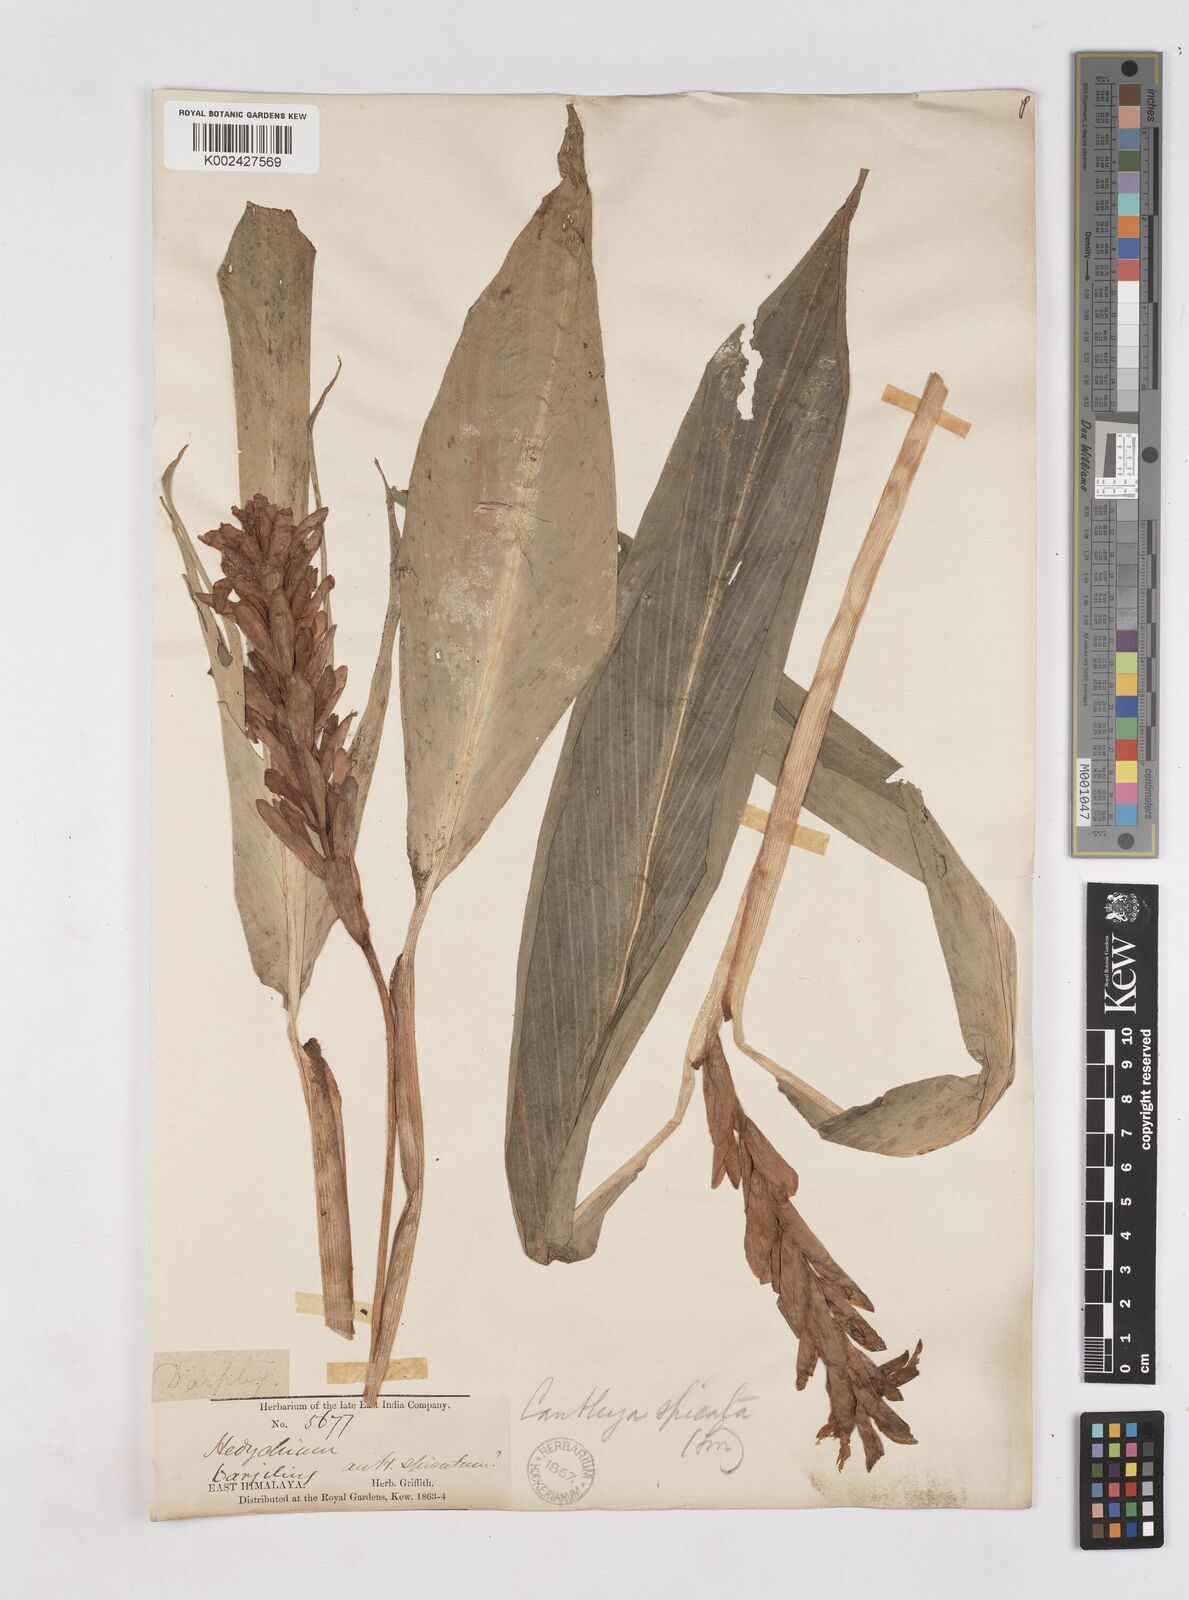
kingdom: Plantae
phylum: Tracheophyta
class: Liliopsida
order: Zingiberales
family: Zingiberaceae
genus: Cautleya
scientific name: Cautleya spicata
